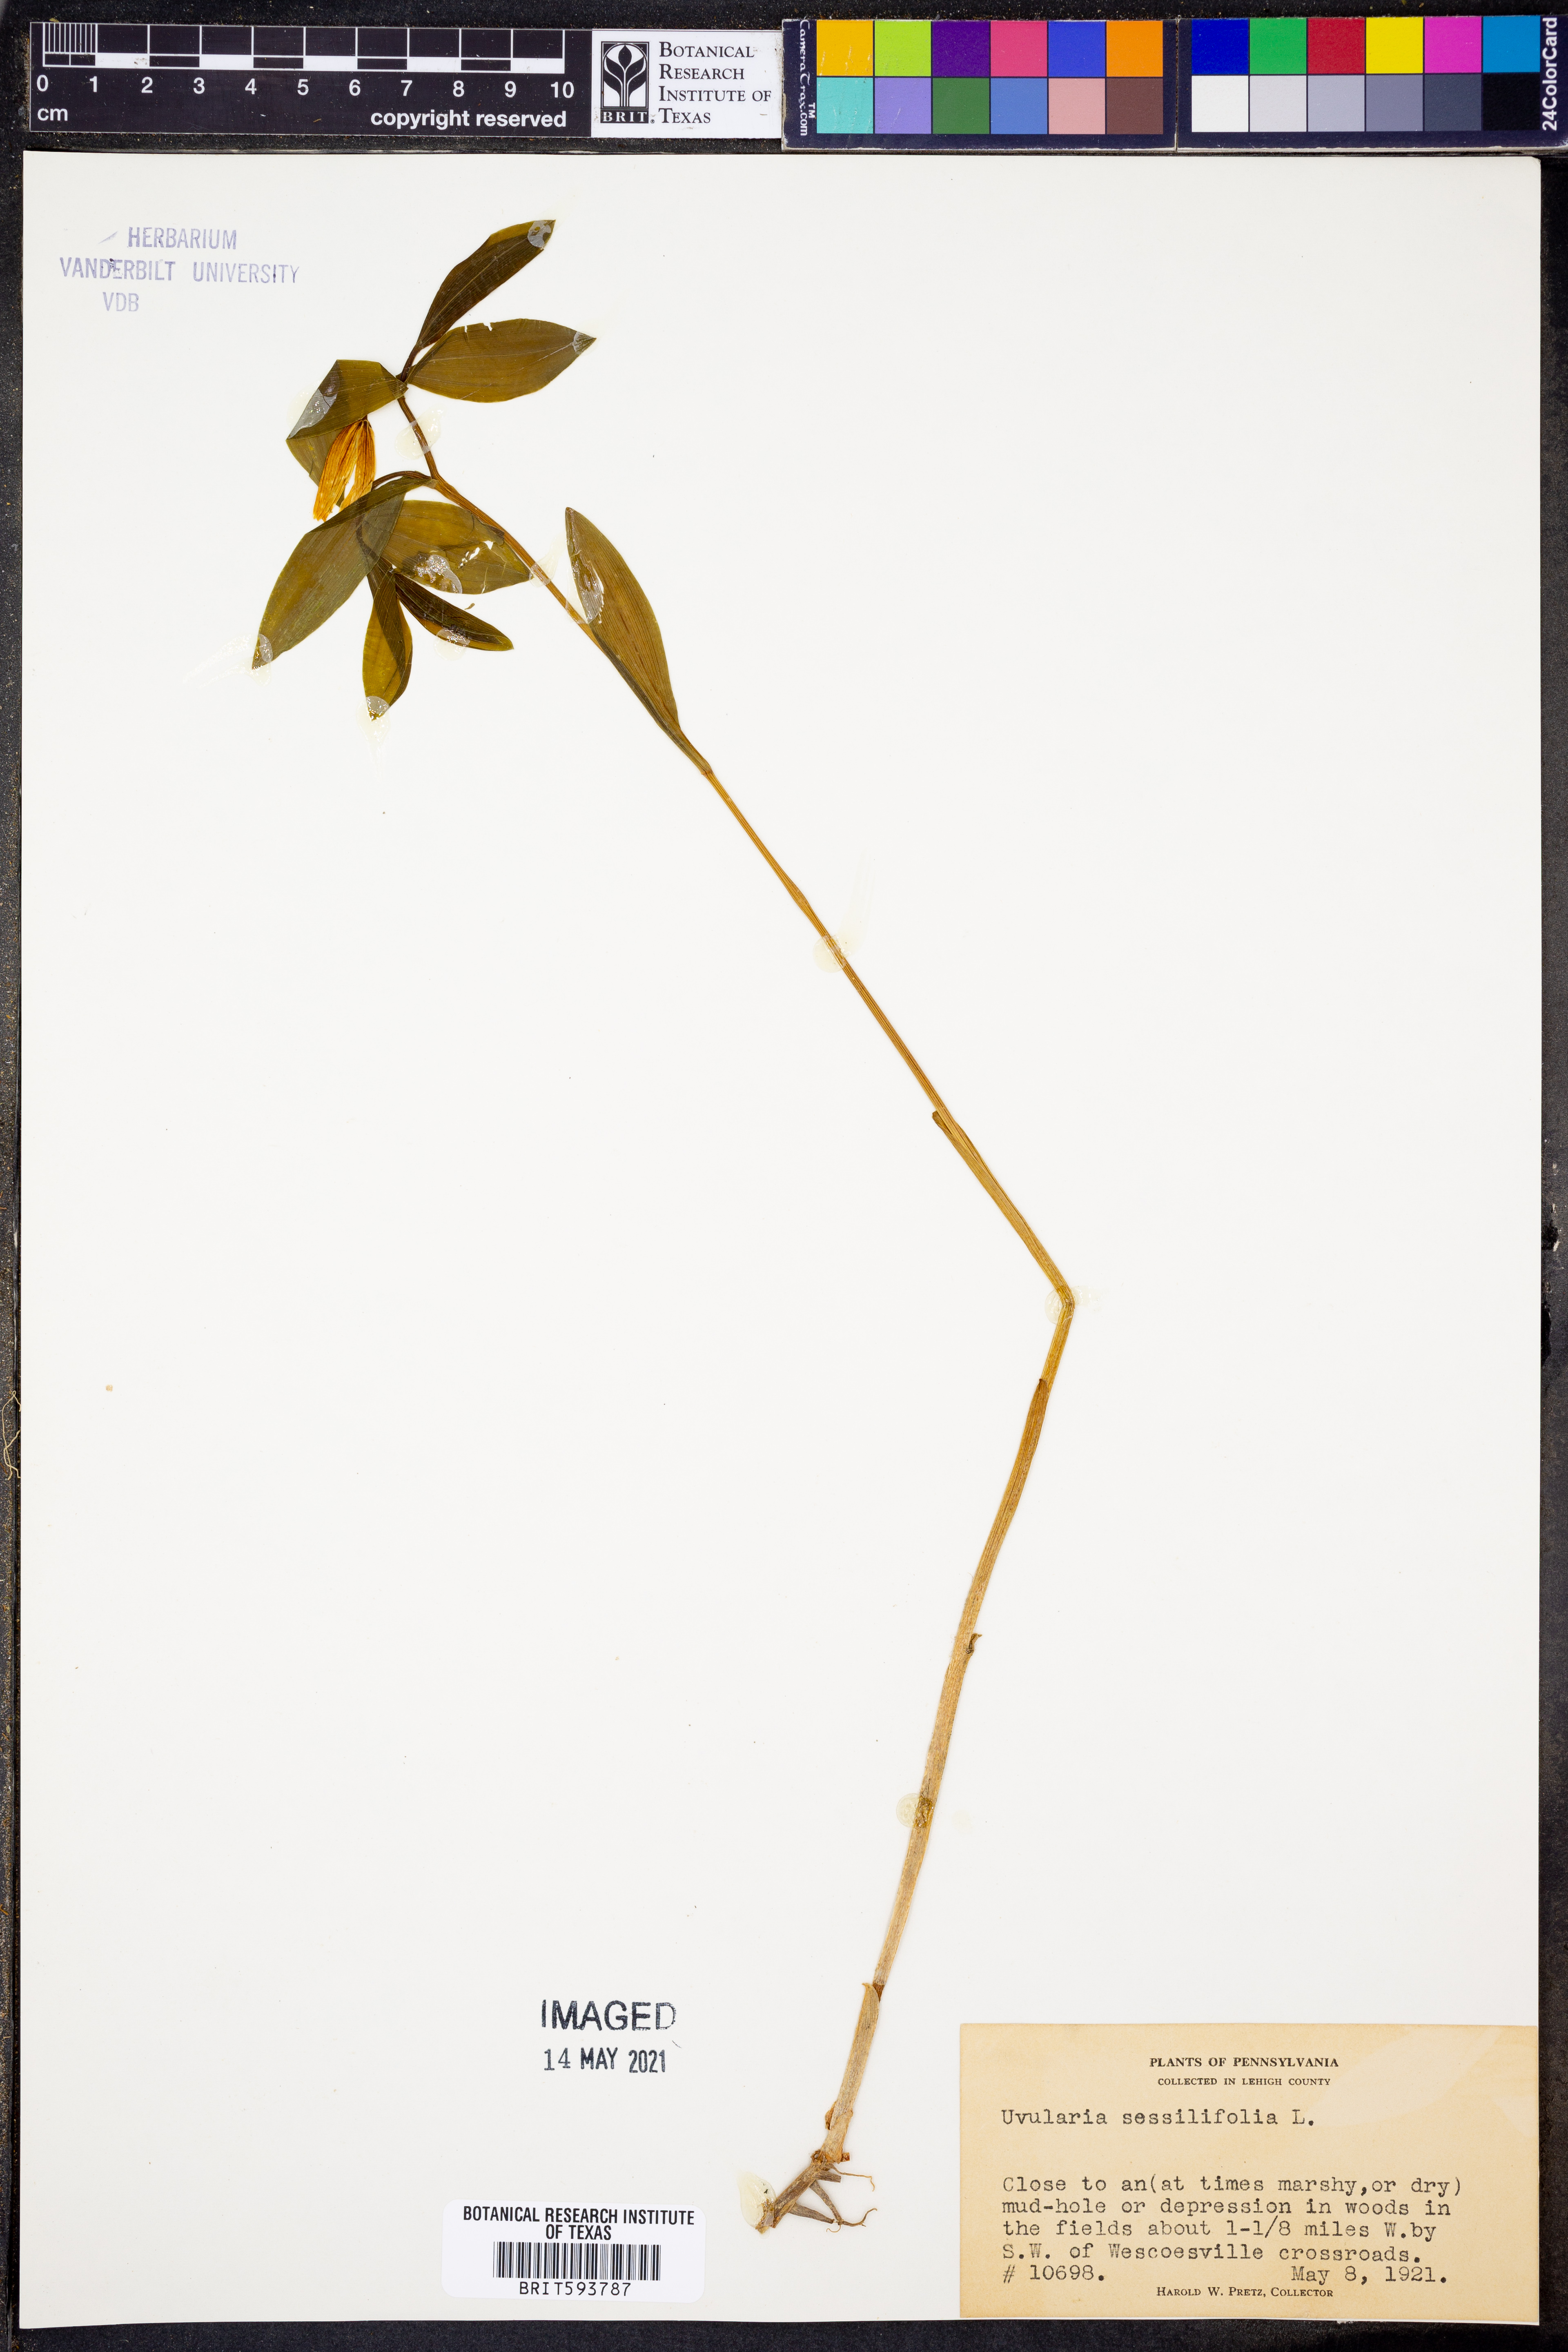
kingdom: Plantae
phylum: Tracheophyta
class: Liliopsida
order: Liliales
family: Colchicaceae
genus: Uvularia
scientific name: Uvularia sessilifolia
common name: Straw-lily
